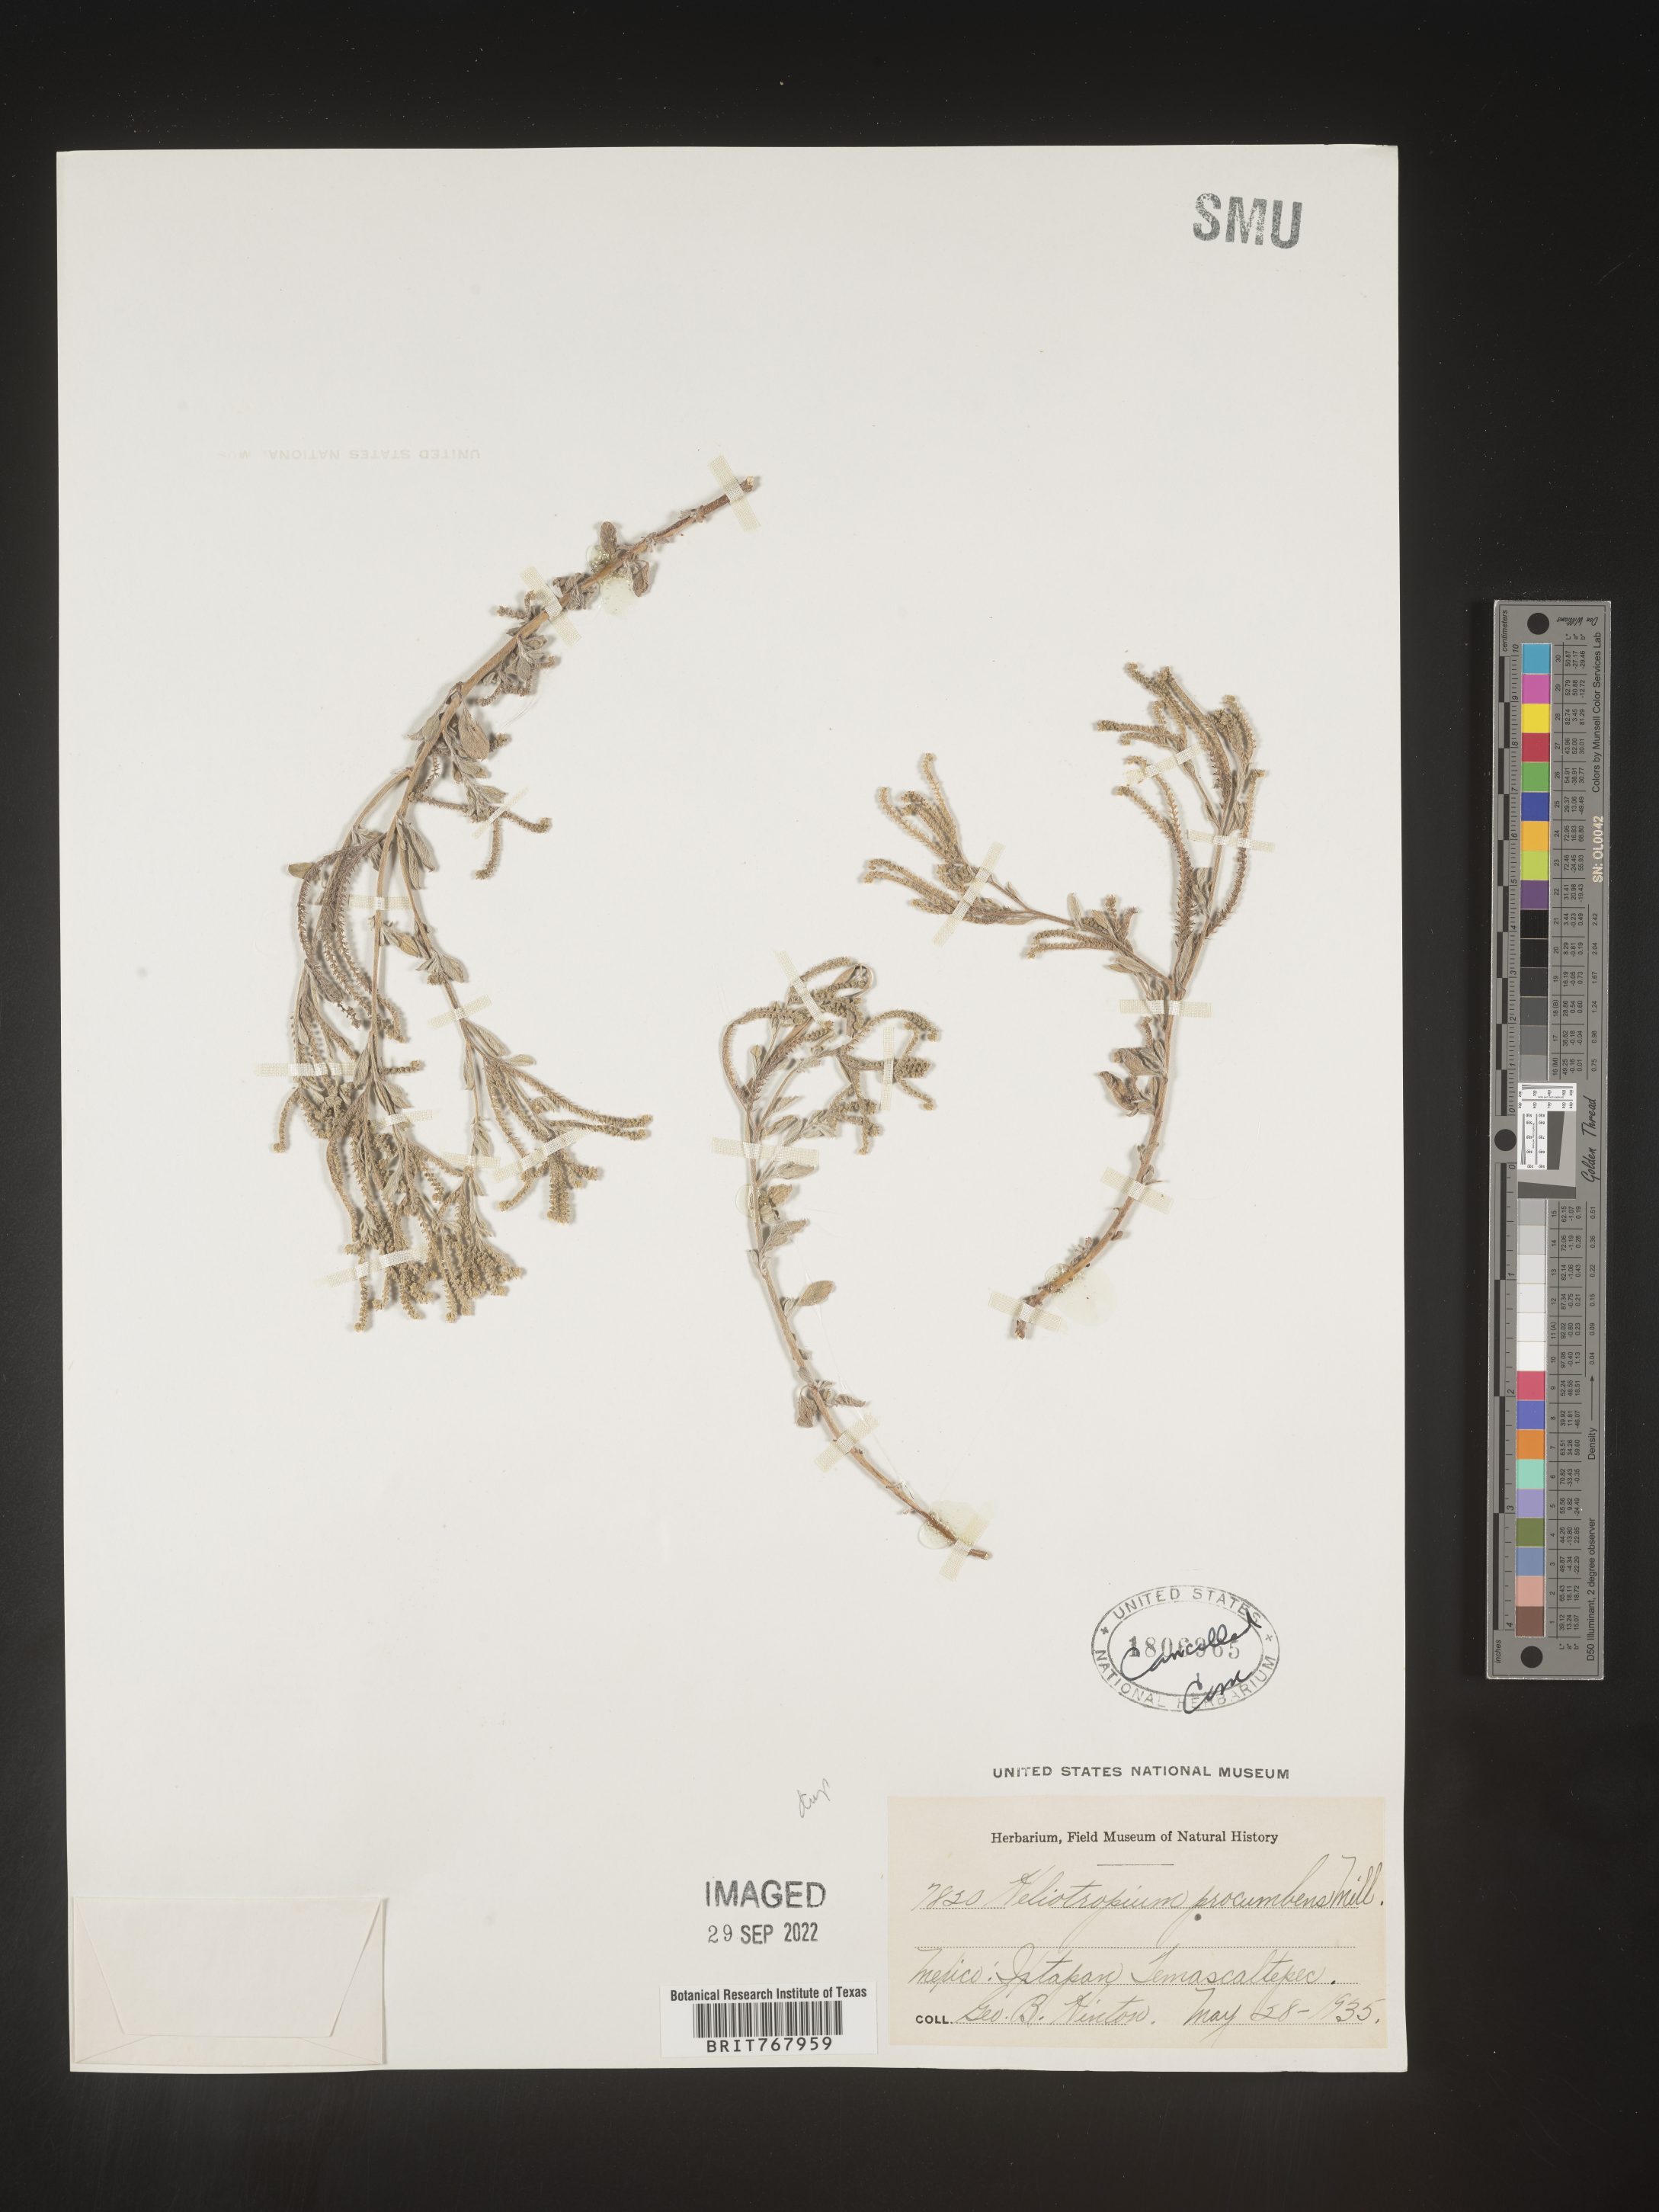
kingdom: Plantae
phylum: Tracheophyta
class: Magnoliopsida
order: Boraginales
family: Heliotropiaceae
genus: Heliotropium
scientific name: Heliotropium
